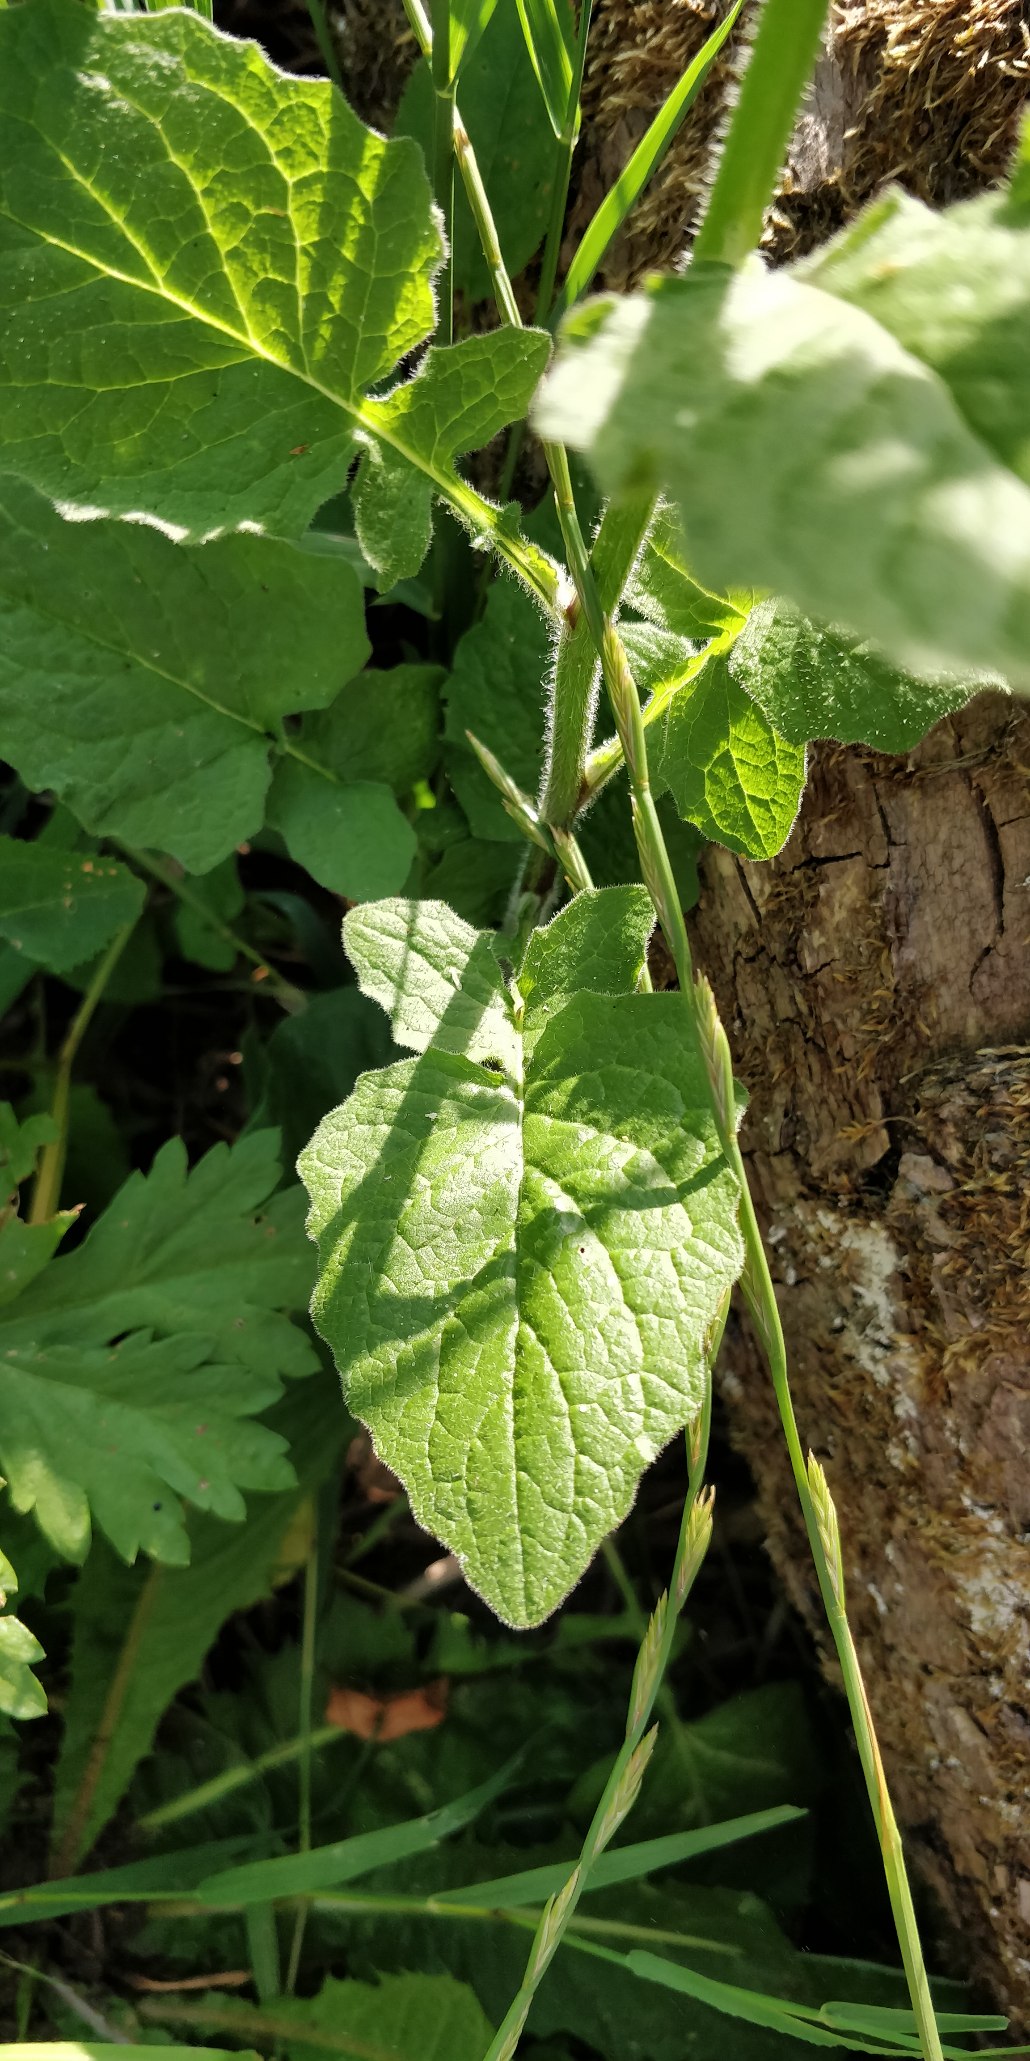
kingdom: Plantae
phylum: Tracheophyta
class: Magnoliopsida
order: Asterales
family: Asteraceae
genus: Lapsana
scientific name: Lapsana communis
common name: Haremad
